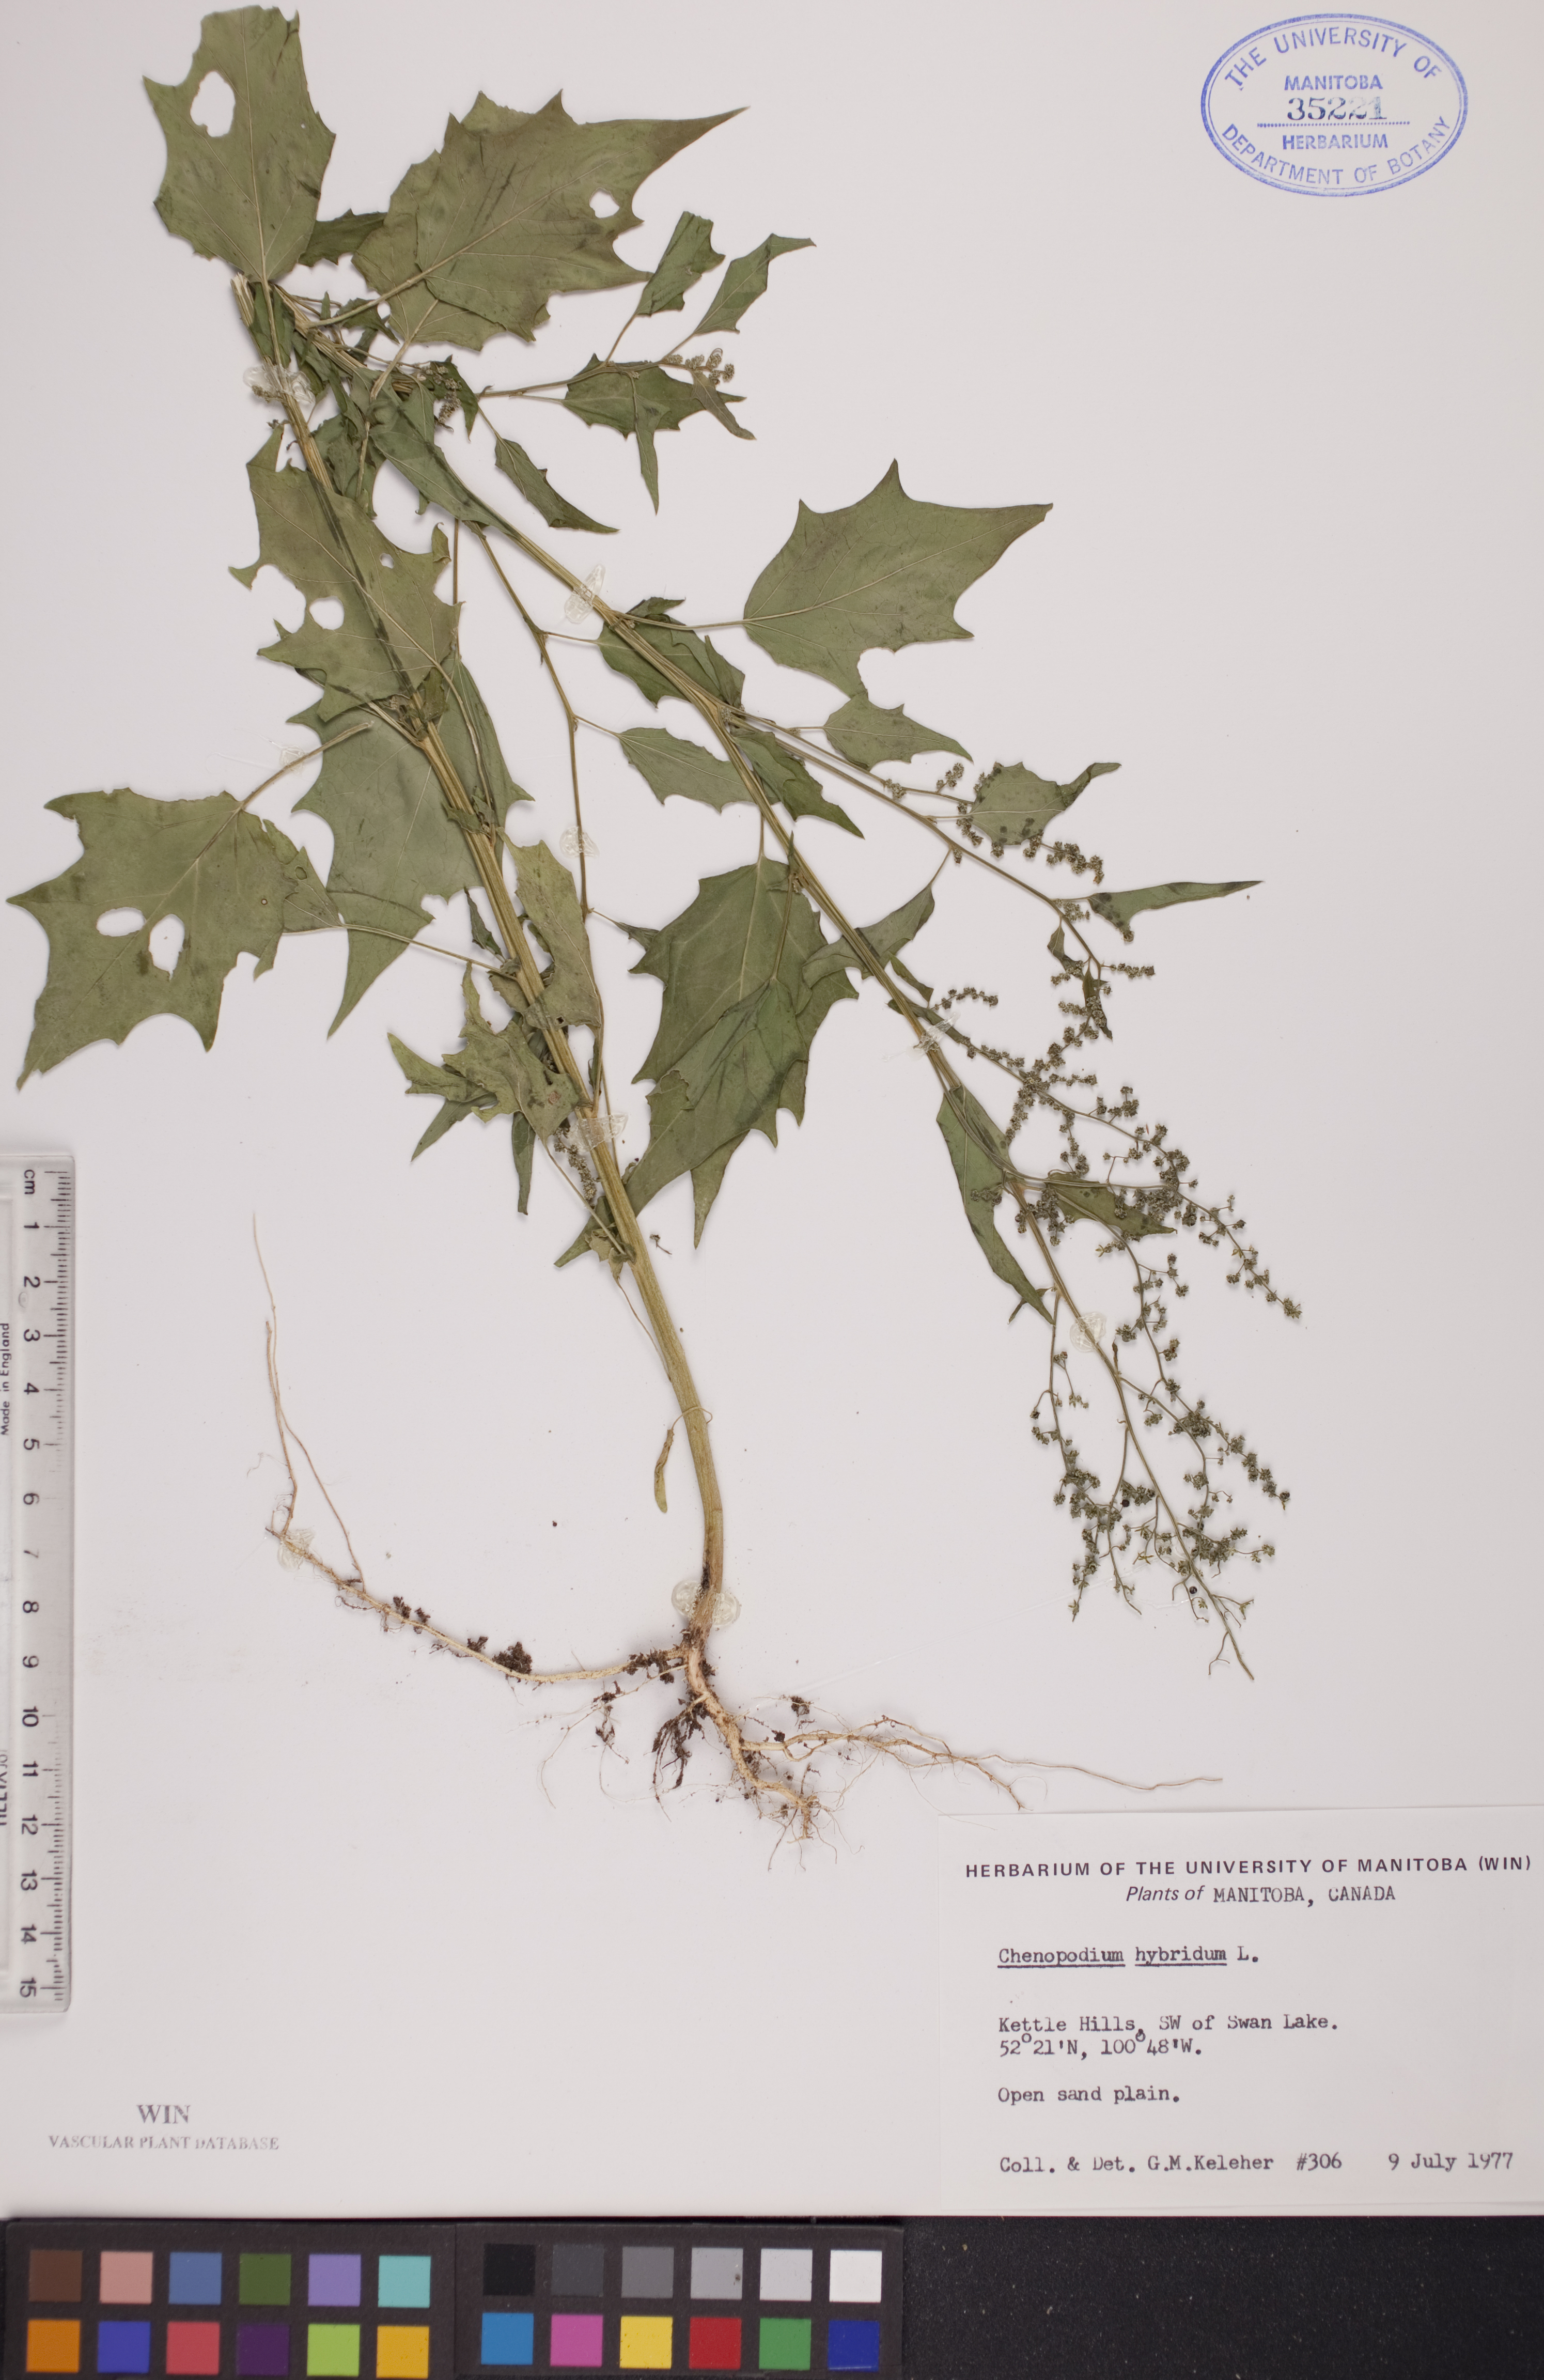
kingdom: Plantae
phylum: Tracheophyta
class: Magnoliopsida
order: Caryophyllales
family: Amaranthaceae
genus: Chenopodiastrum
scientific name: Chenopodiastrum hybridum
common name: Mapleleaf goosefoot
